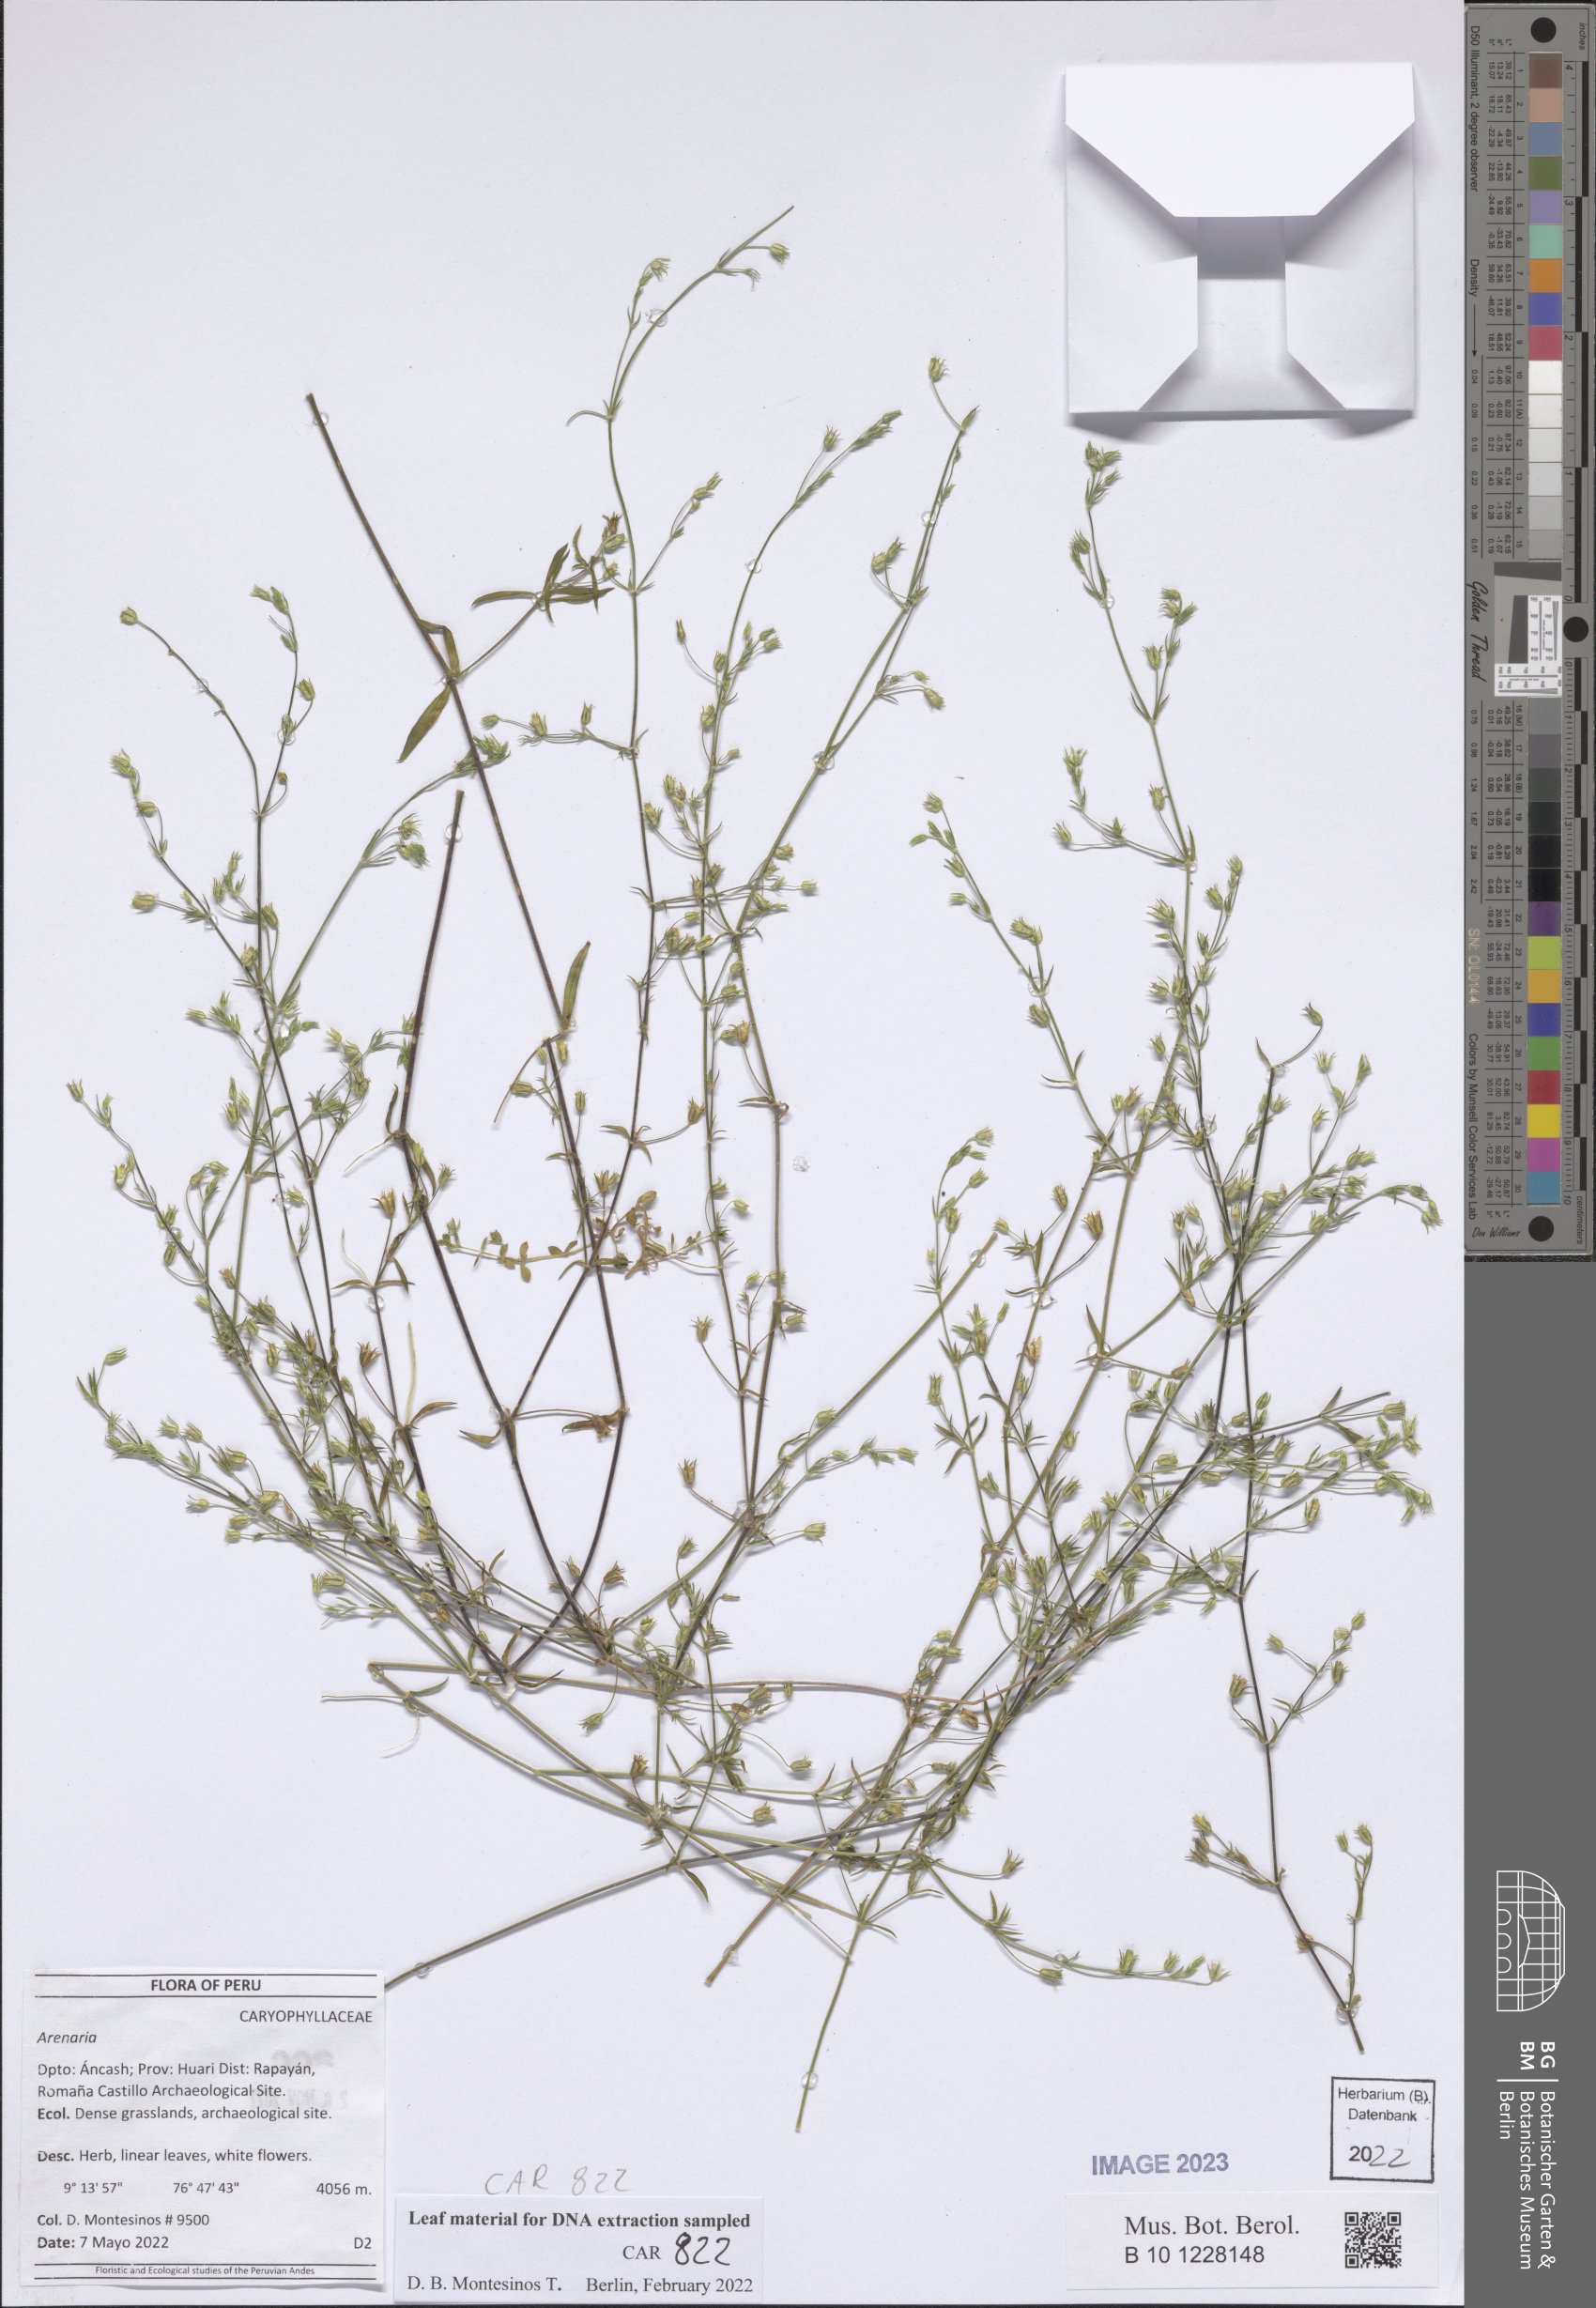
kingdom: Plantae
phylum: Tracheophyta
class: Magnoliopsida
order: Caryophyllales
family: Caryophyllaceae
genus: Arenaria
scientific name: Arenaria
